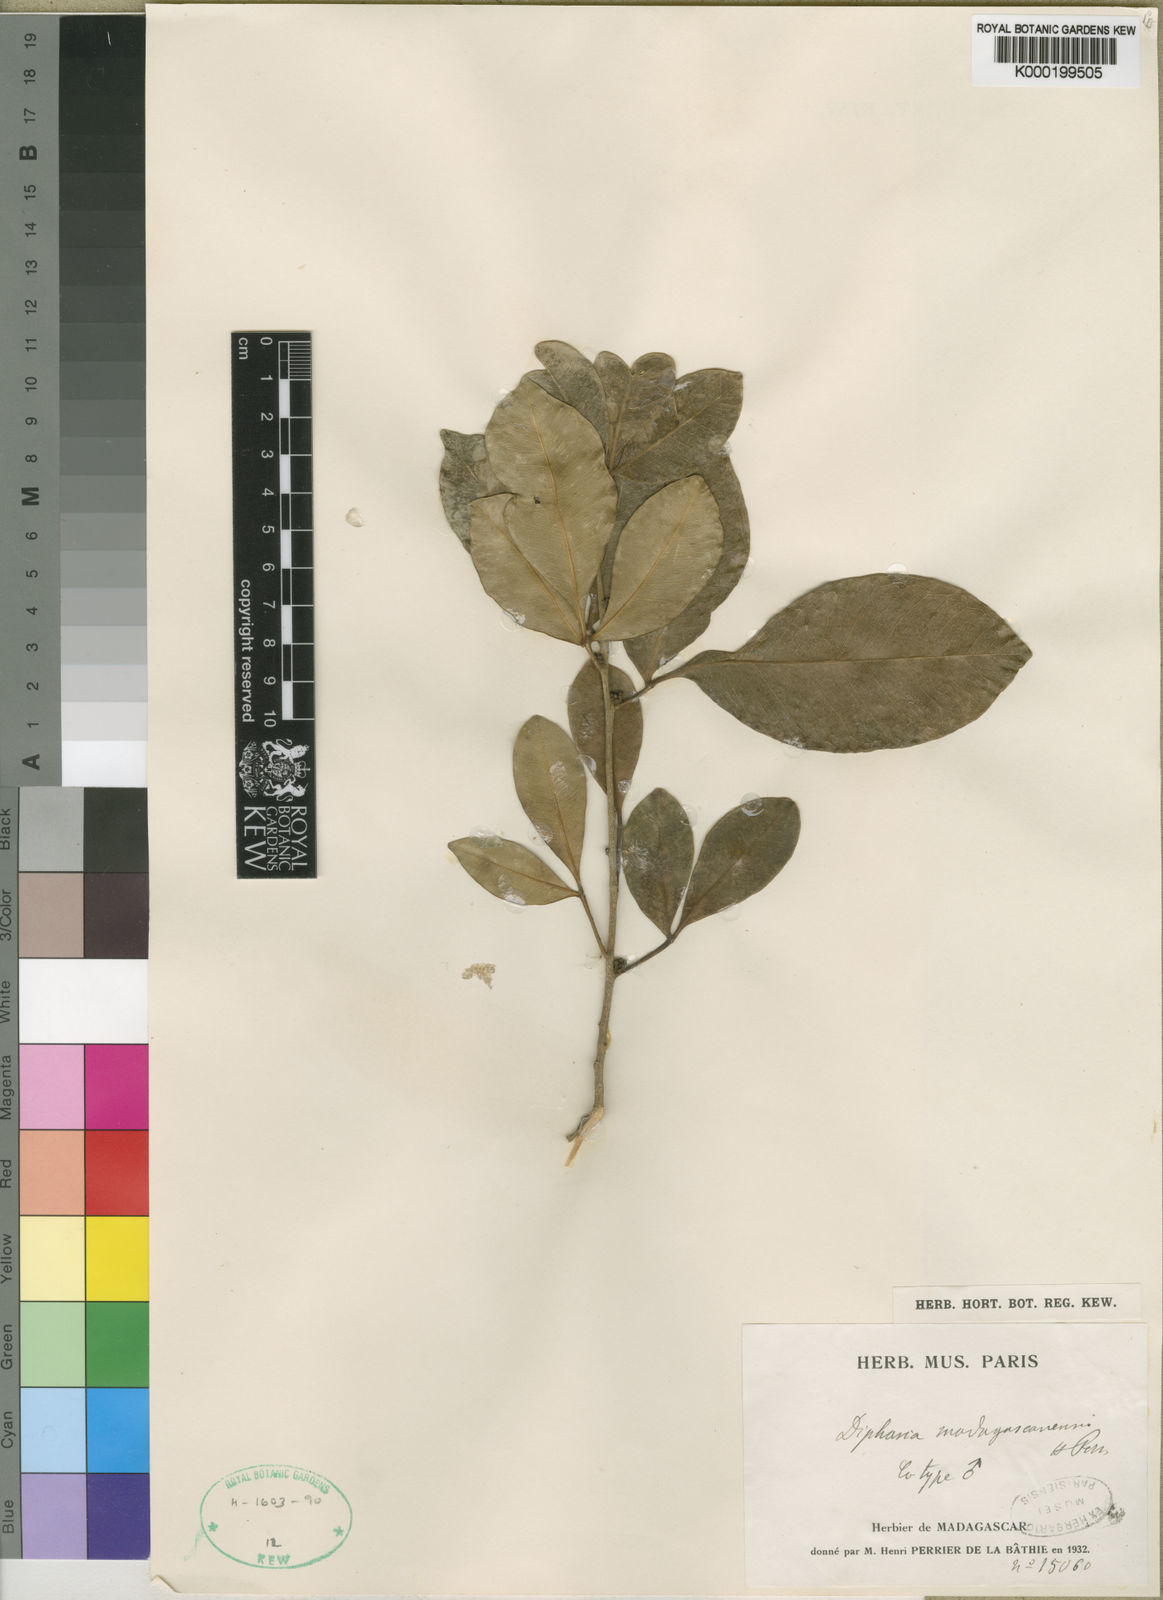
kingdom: Plantae
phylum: Tracheophyta
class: Magnoliopsida
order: Sapindales
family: Rutaceae
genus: Vepris
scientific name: Vepris boiviniana
